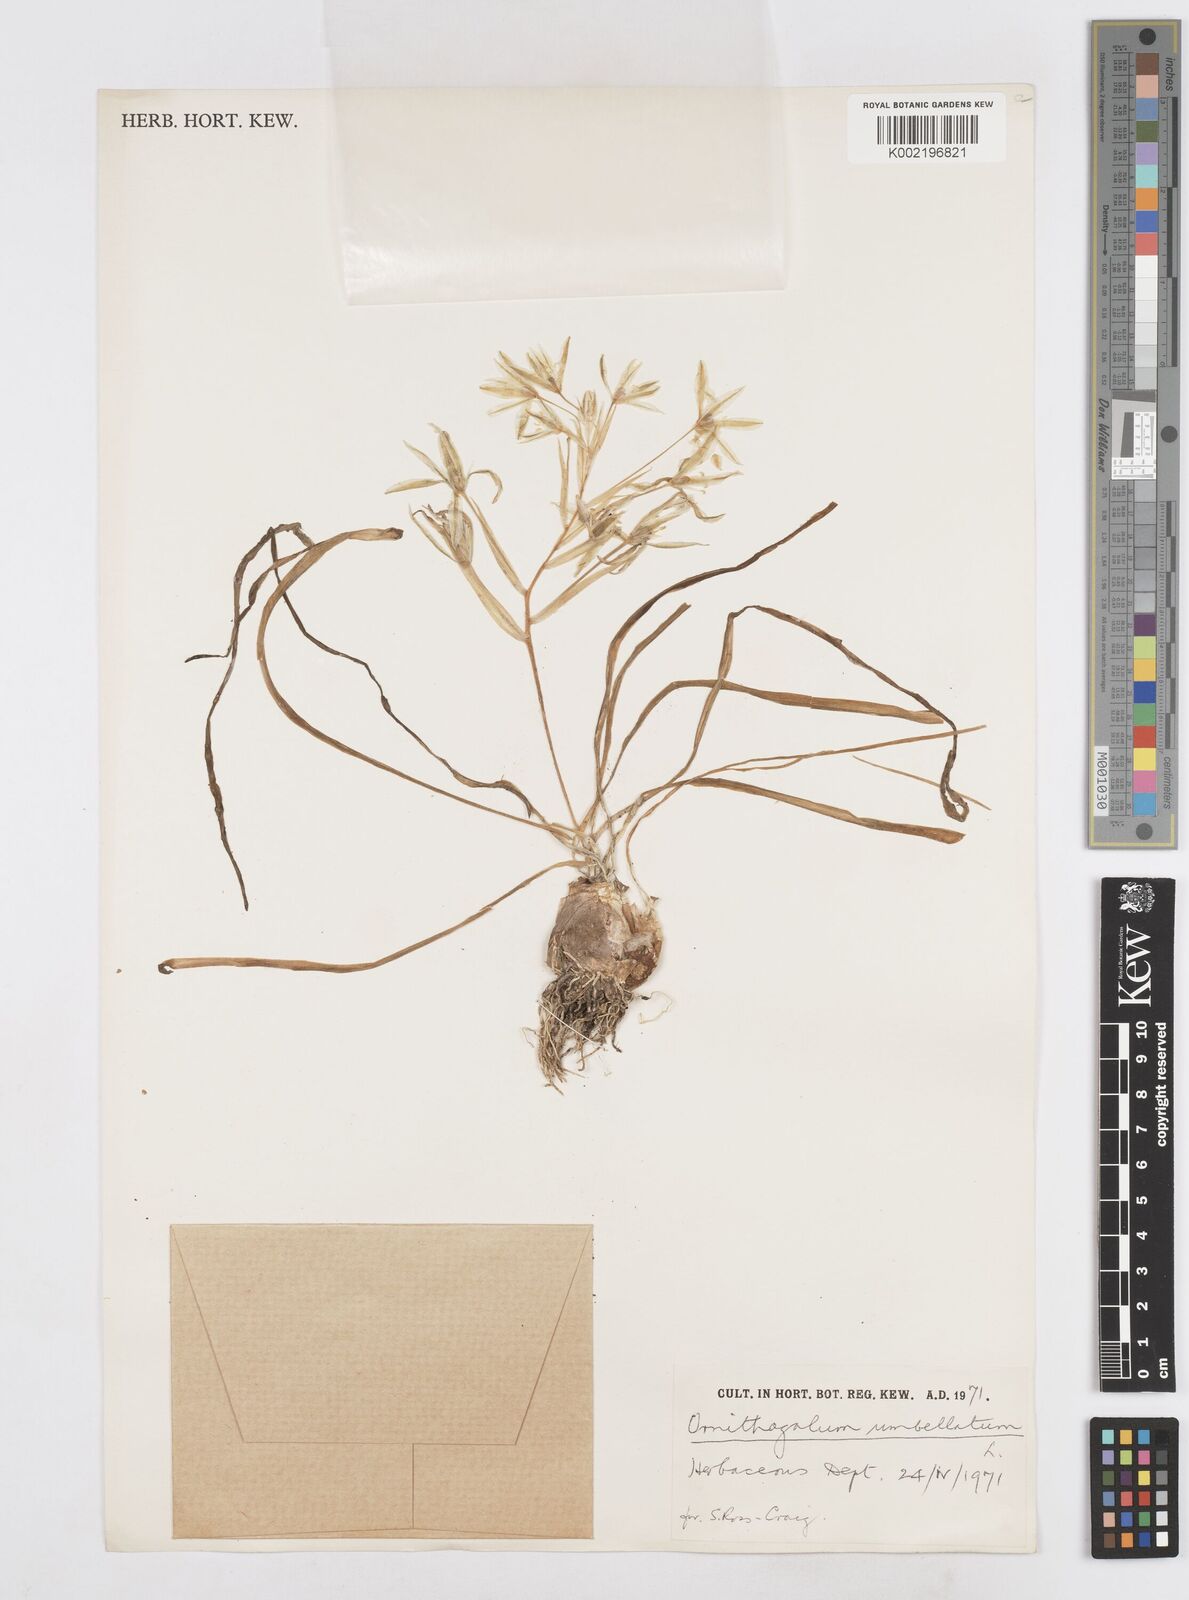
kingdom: Plantae
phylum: Tracheophyta
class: Liliopsida
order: Asparagales
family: Asparagaceae
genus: Ornithogalum
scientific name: Ornithogalum umbellatum
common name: Garden star-of-bethlehem
